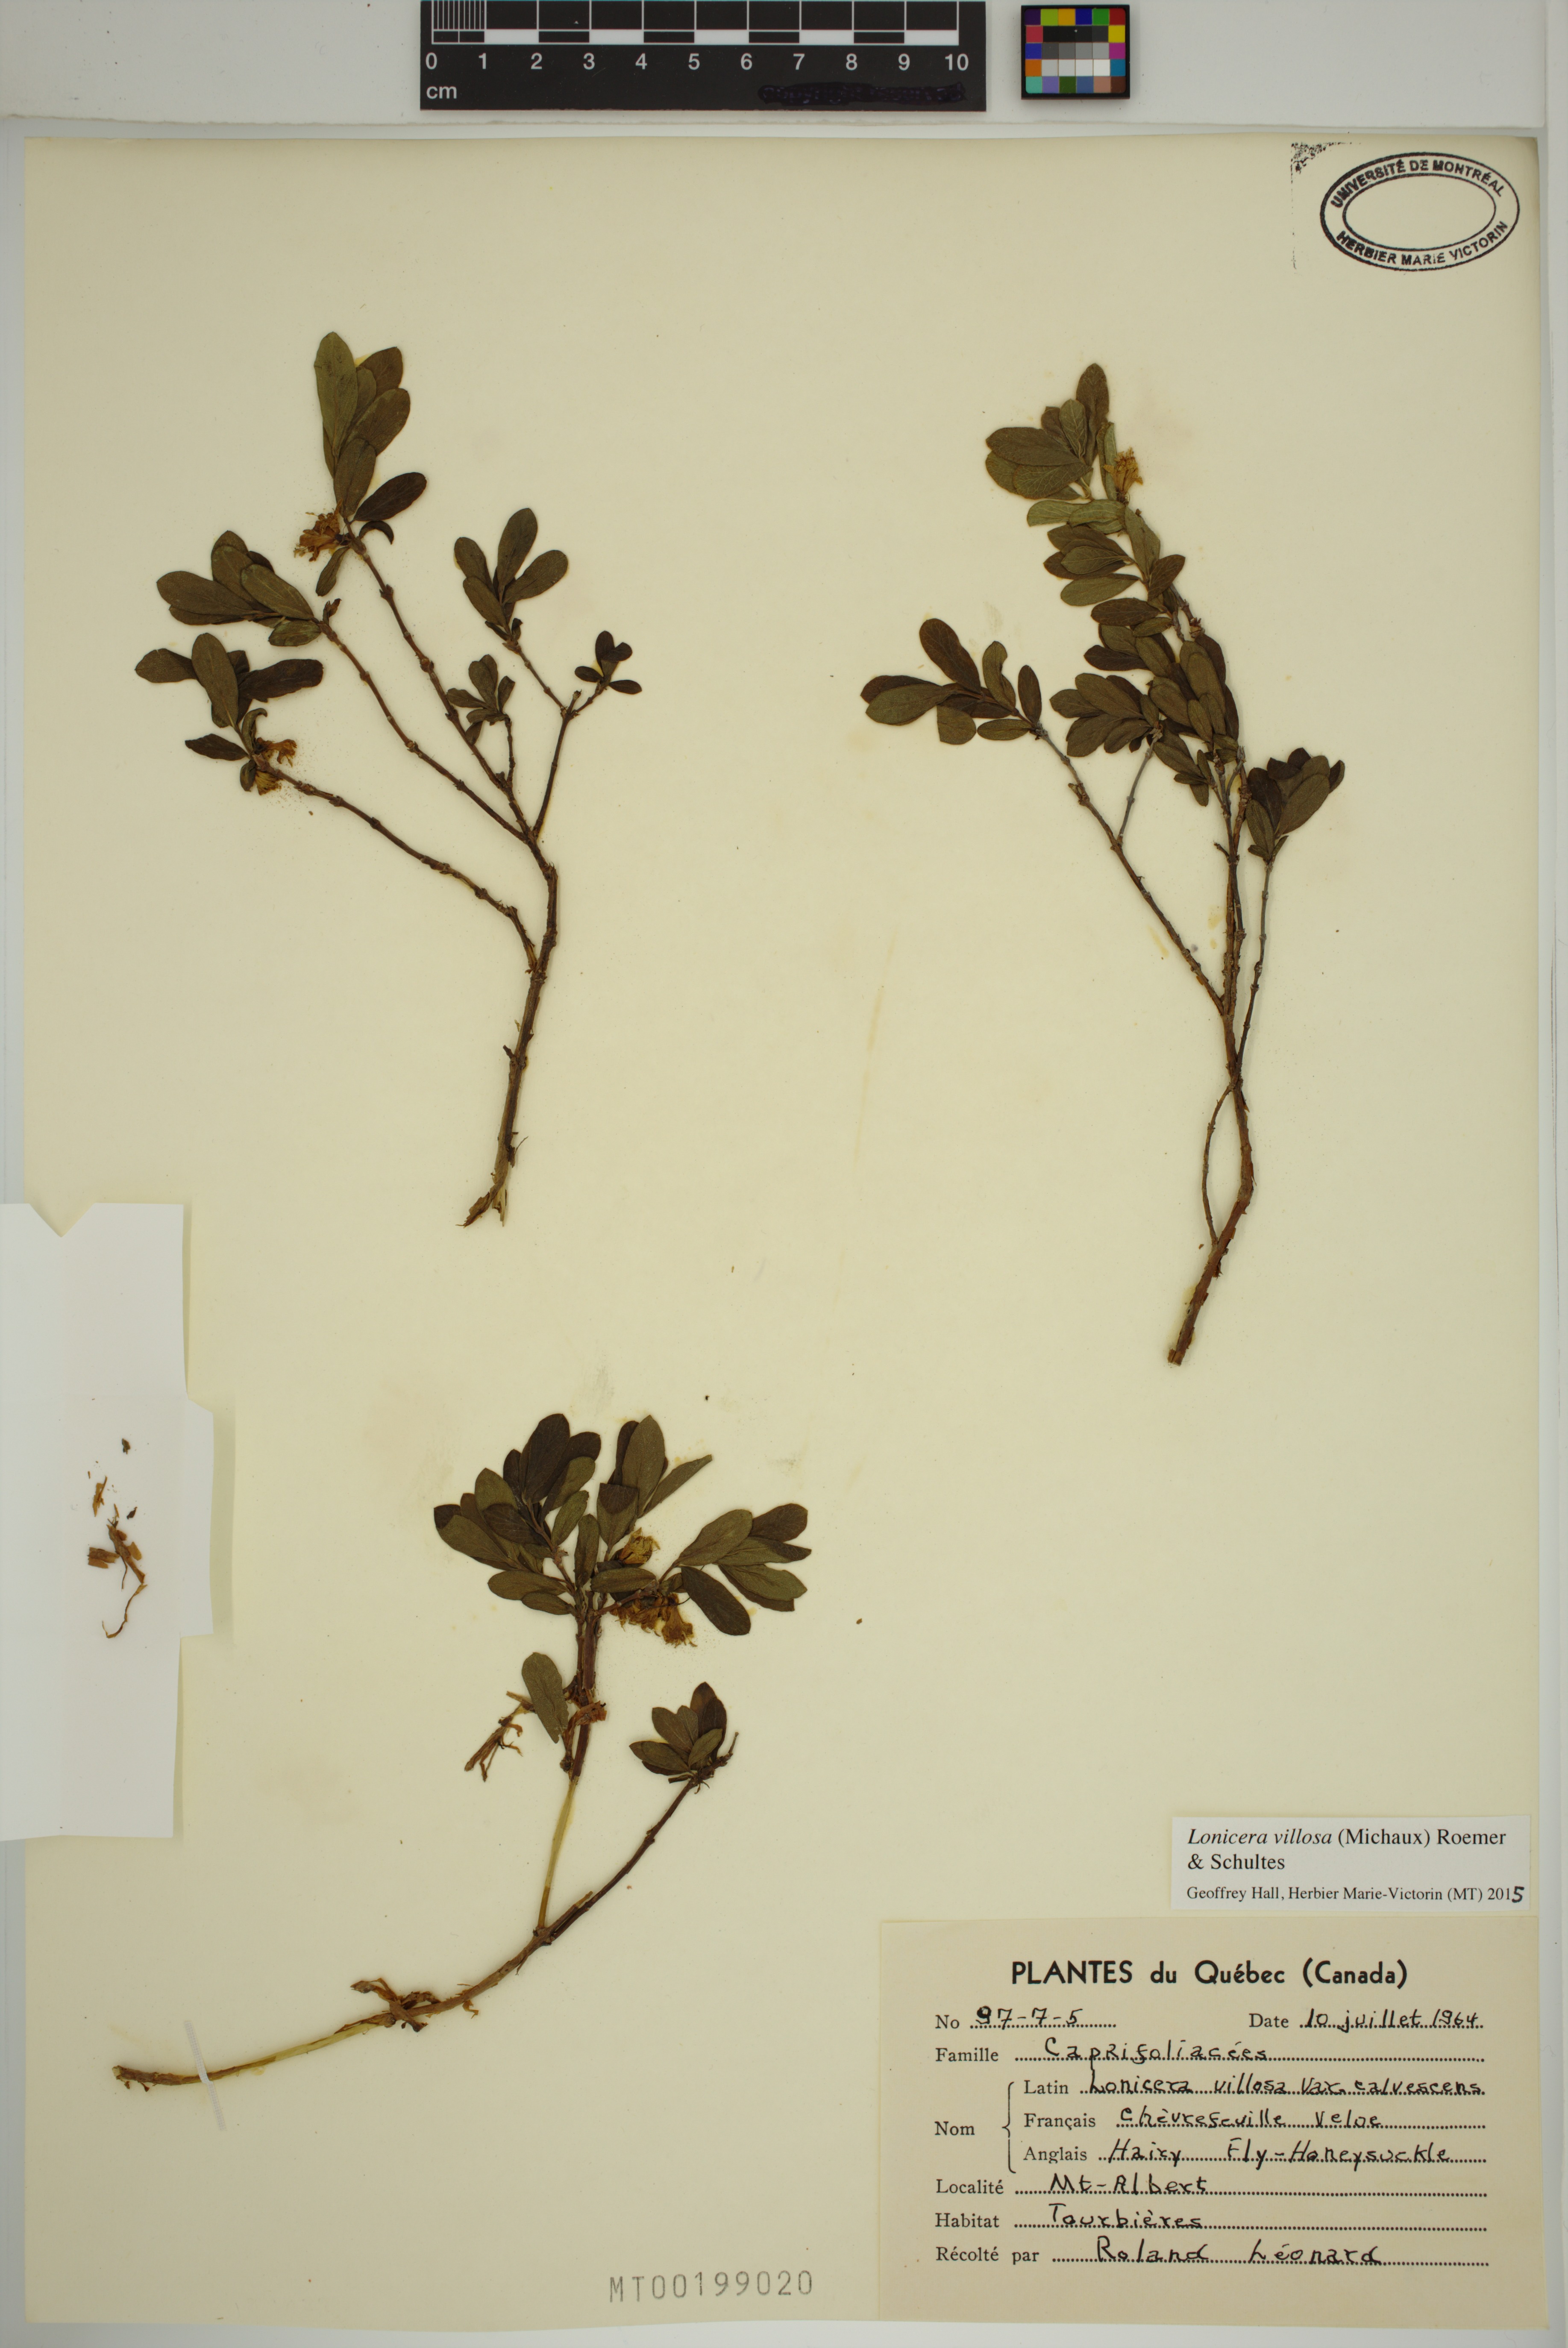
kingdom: Plantae
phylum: Tracheophyta
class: Magnoliopsida
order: Dipsacales
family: Caprifoliaceae
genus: Lonicera
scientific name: Lonicera villosa
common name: Mountain fly-honeysuckle
